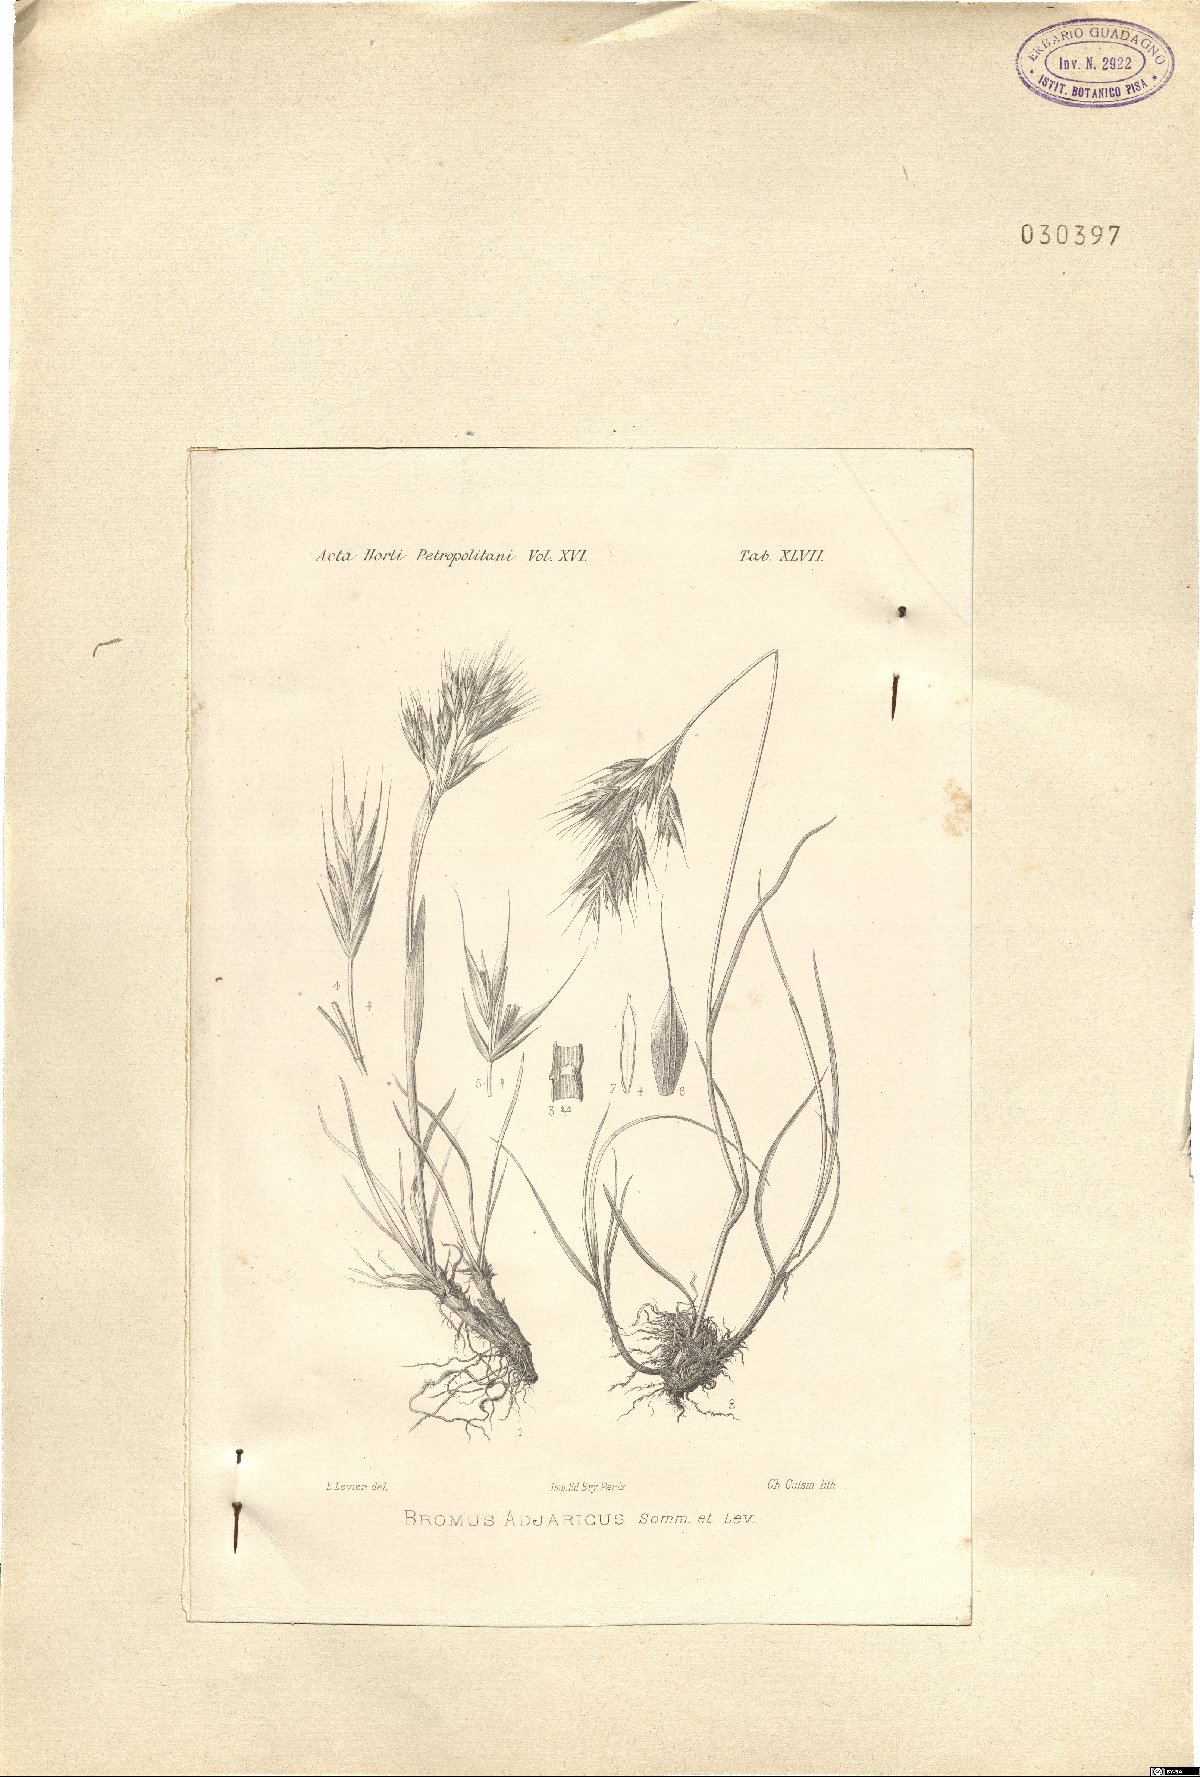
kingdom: Plantae
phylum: Tracheophyta
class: Liliopsida
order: Poales
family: Poaceae
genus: Bromus
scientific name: Bromus variegatus
